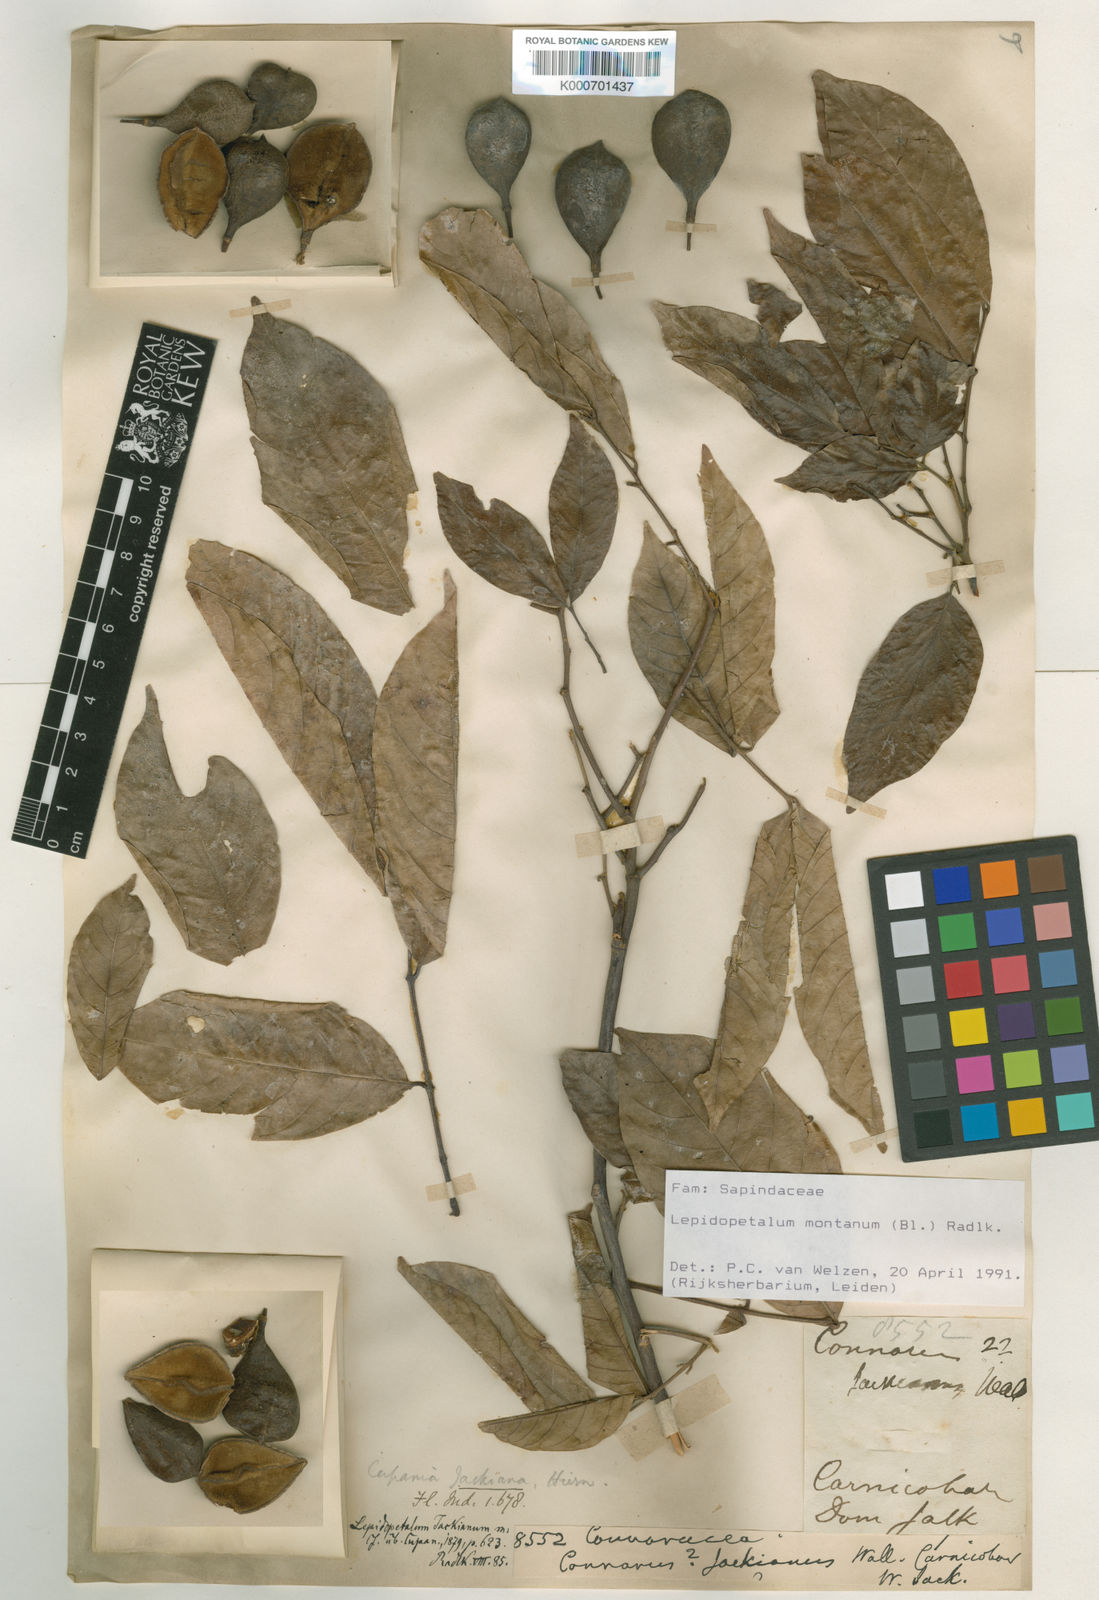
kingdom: Plantae
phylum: Tracheophyta
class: Magnoliopsida
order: Sapindales
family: Sapindaceae
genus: Lepidopetalum
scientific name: Lepidopetalum montanum
